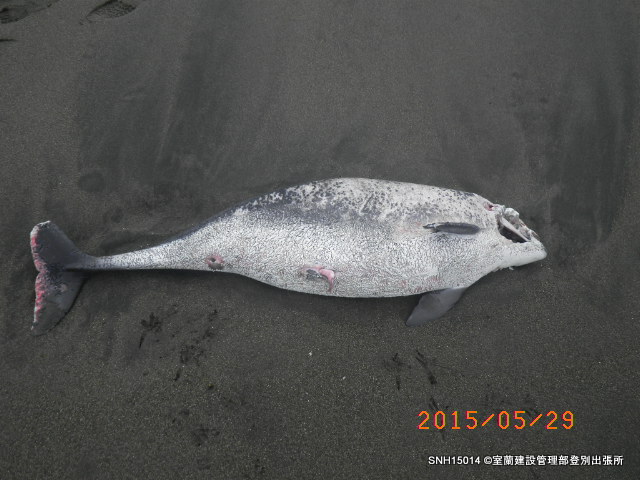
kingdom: Animalia
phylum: Chordata
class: Mammalia
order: Cetacea
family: Phocoenidae
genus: Phocoena
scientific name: Phocoena phocoena
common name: Harbour porpoise
